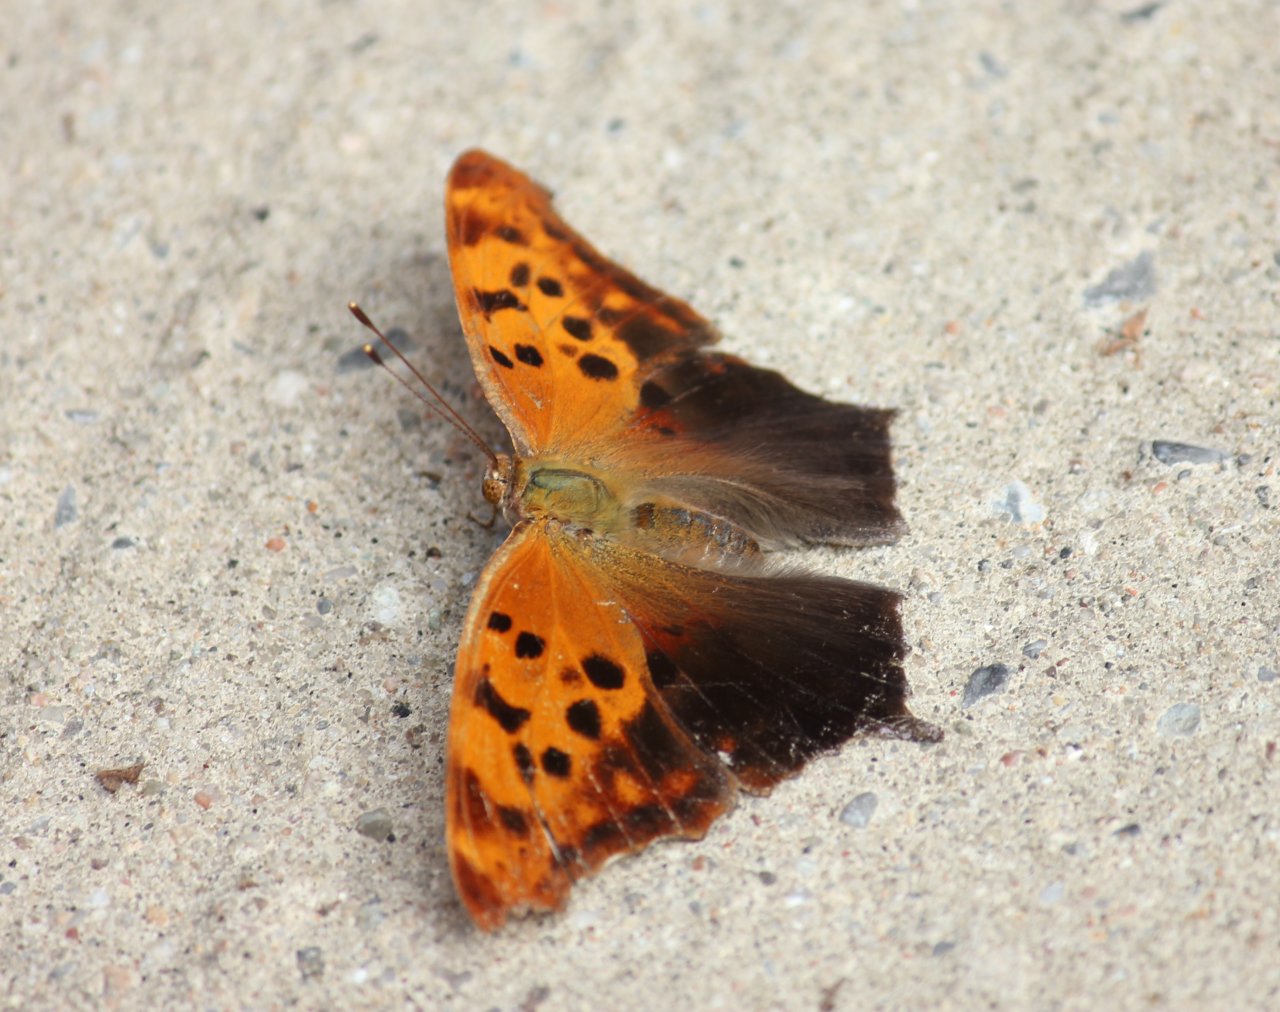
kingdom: Animalia
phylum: Arthropoda
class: Insecta
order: Lepidoptera
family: Nymphalidae
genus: Polygonia
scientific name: Polygonia interrogationis
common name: Question Mark
